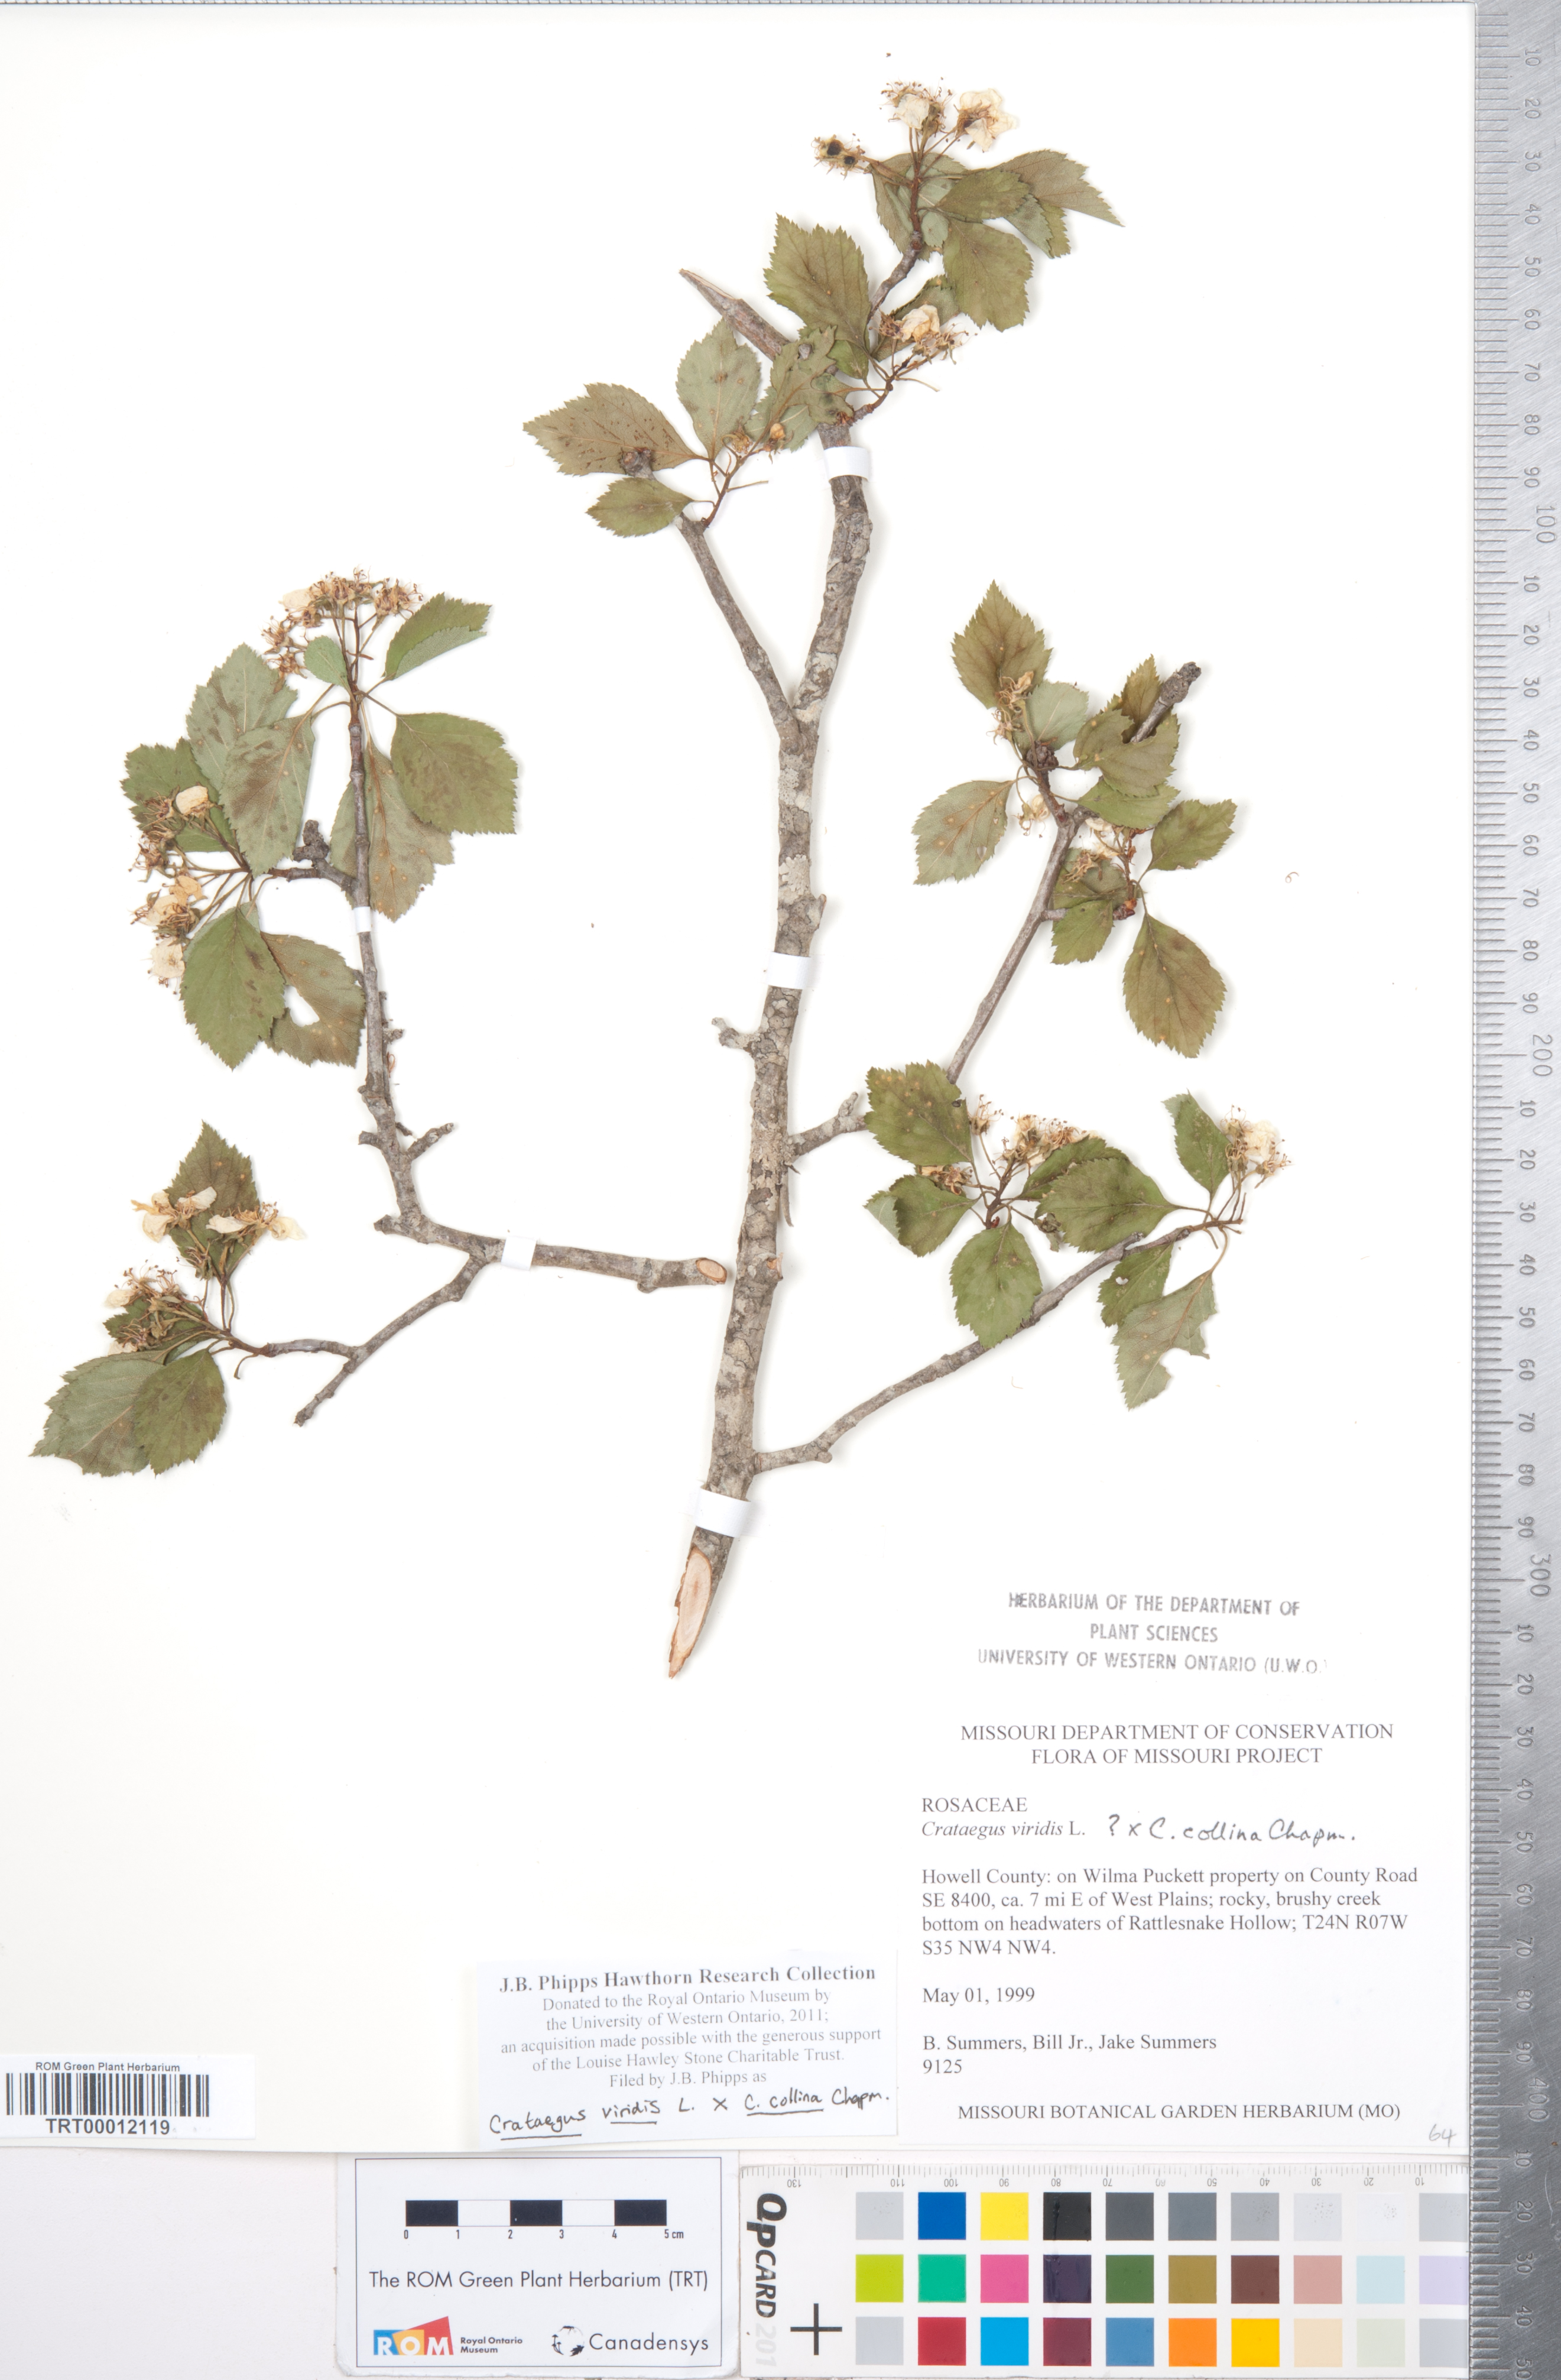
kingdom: Plantae
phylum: Tracheophyta
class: Magnoliopsida
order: Rosales
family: Rosaceae
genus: Crataegus
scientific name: Crataegus
